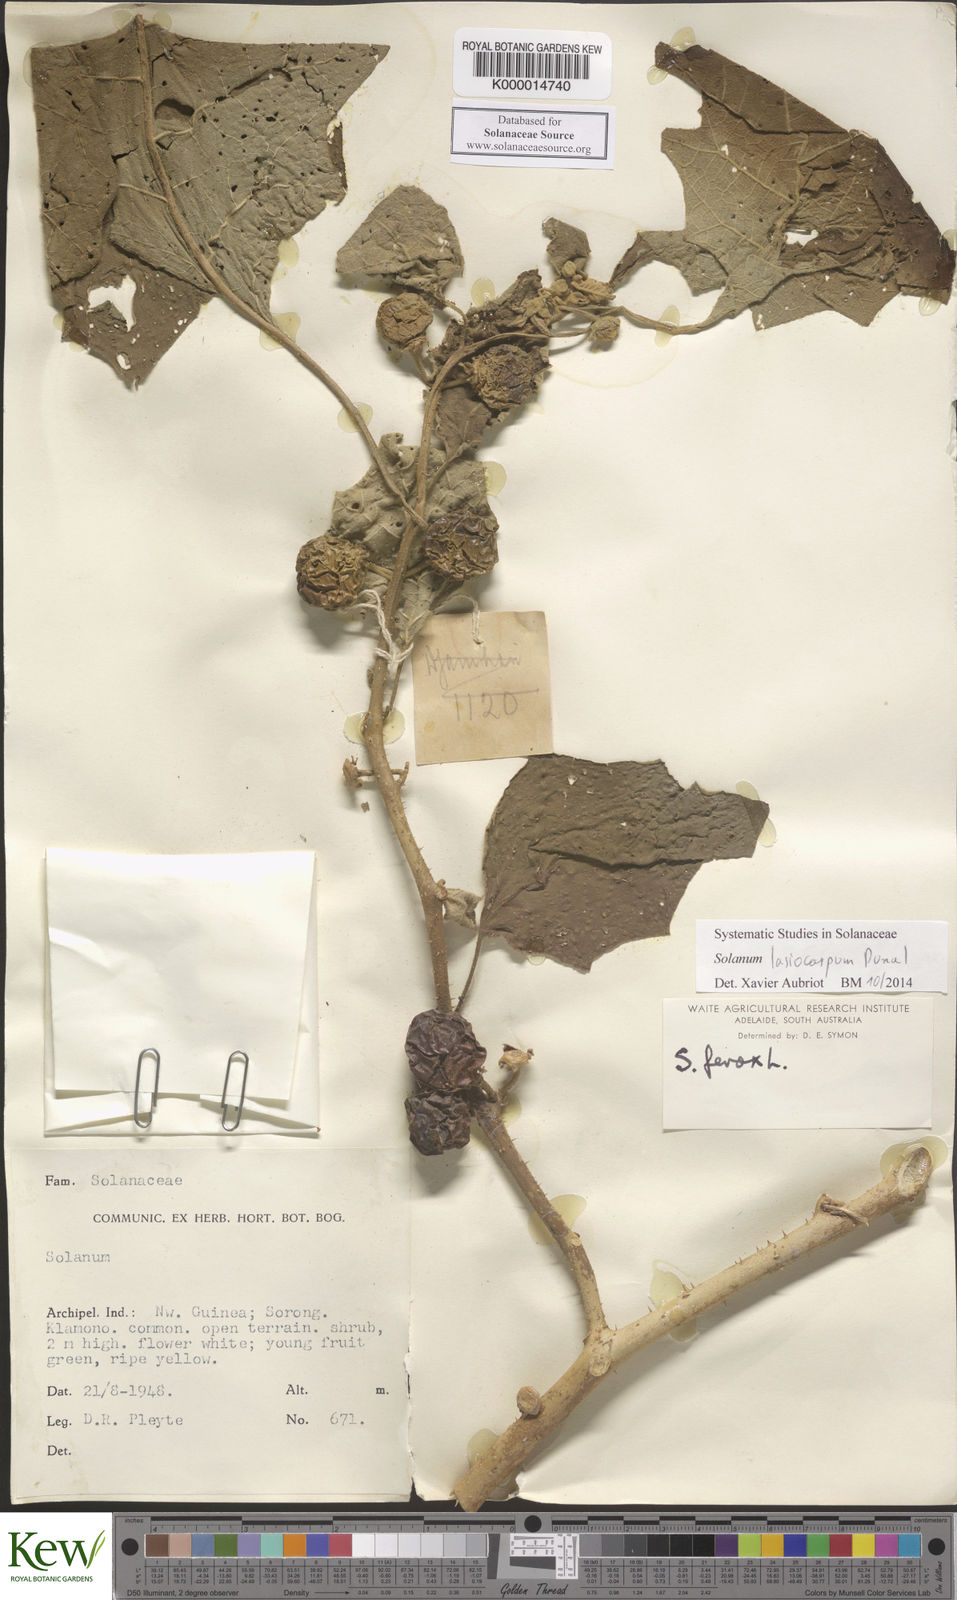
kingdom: Plantae
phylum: Tracheophyta
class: Magnoliopsida
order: Solanales
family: Solanaceae
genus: Solanum
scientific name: Solanum lasiocarpum
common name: Indian nightshade
